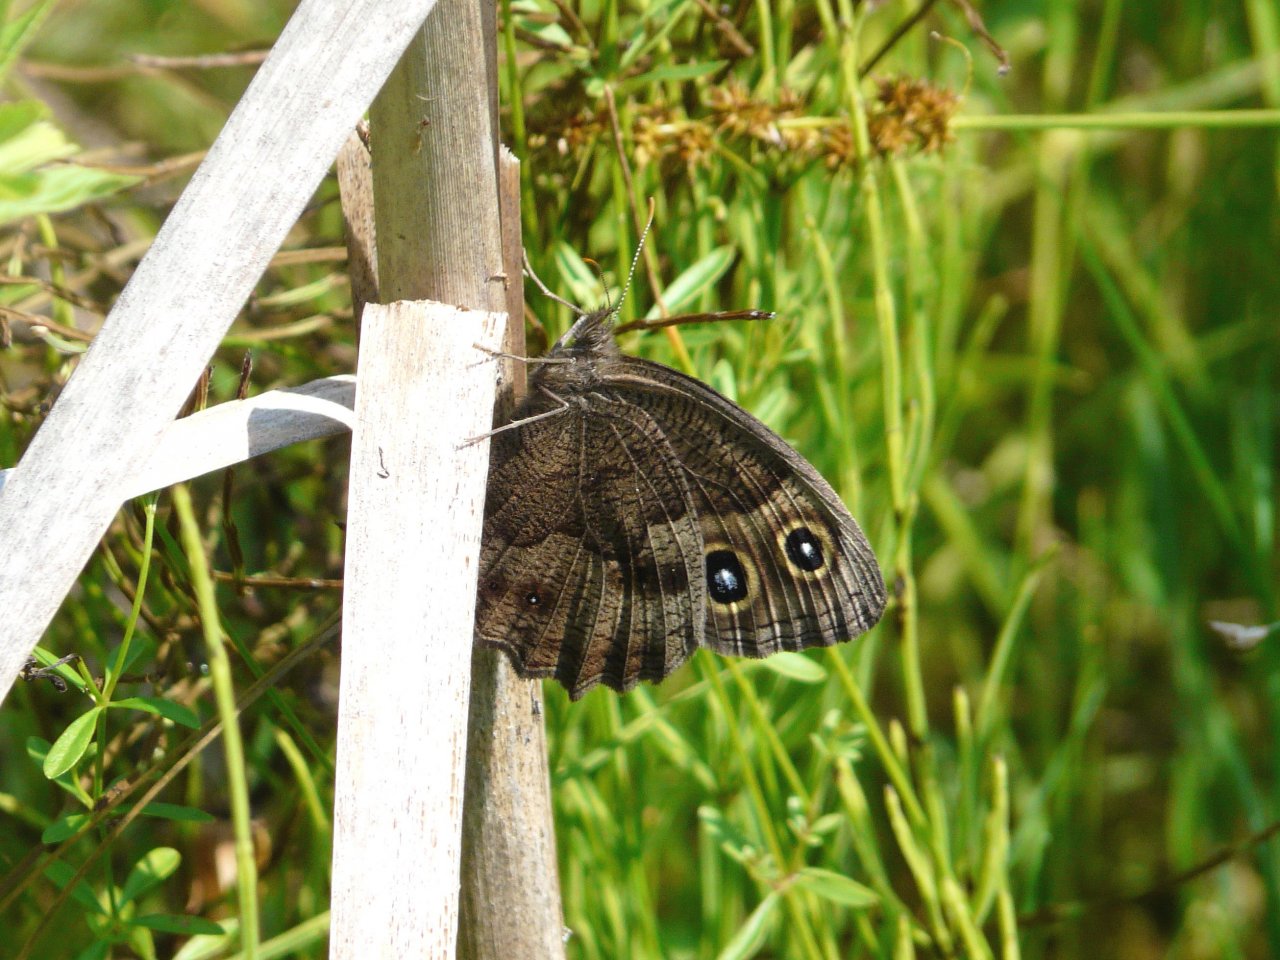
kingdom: Animalia
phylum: Arthropoda
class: Insecta
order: Lepidoptera
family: Nymphalidae
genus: Cercyonis
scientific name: Cercyonis pegala
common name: Common Wood-Nymph
